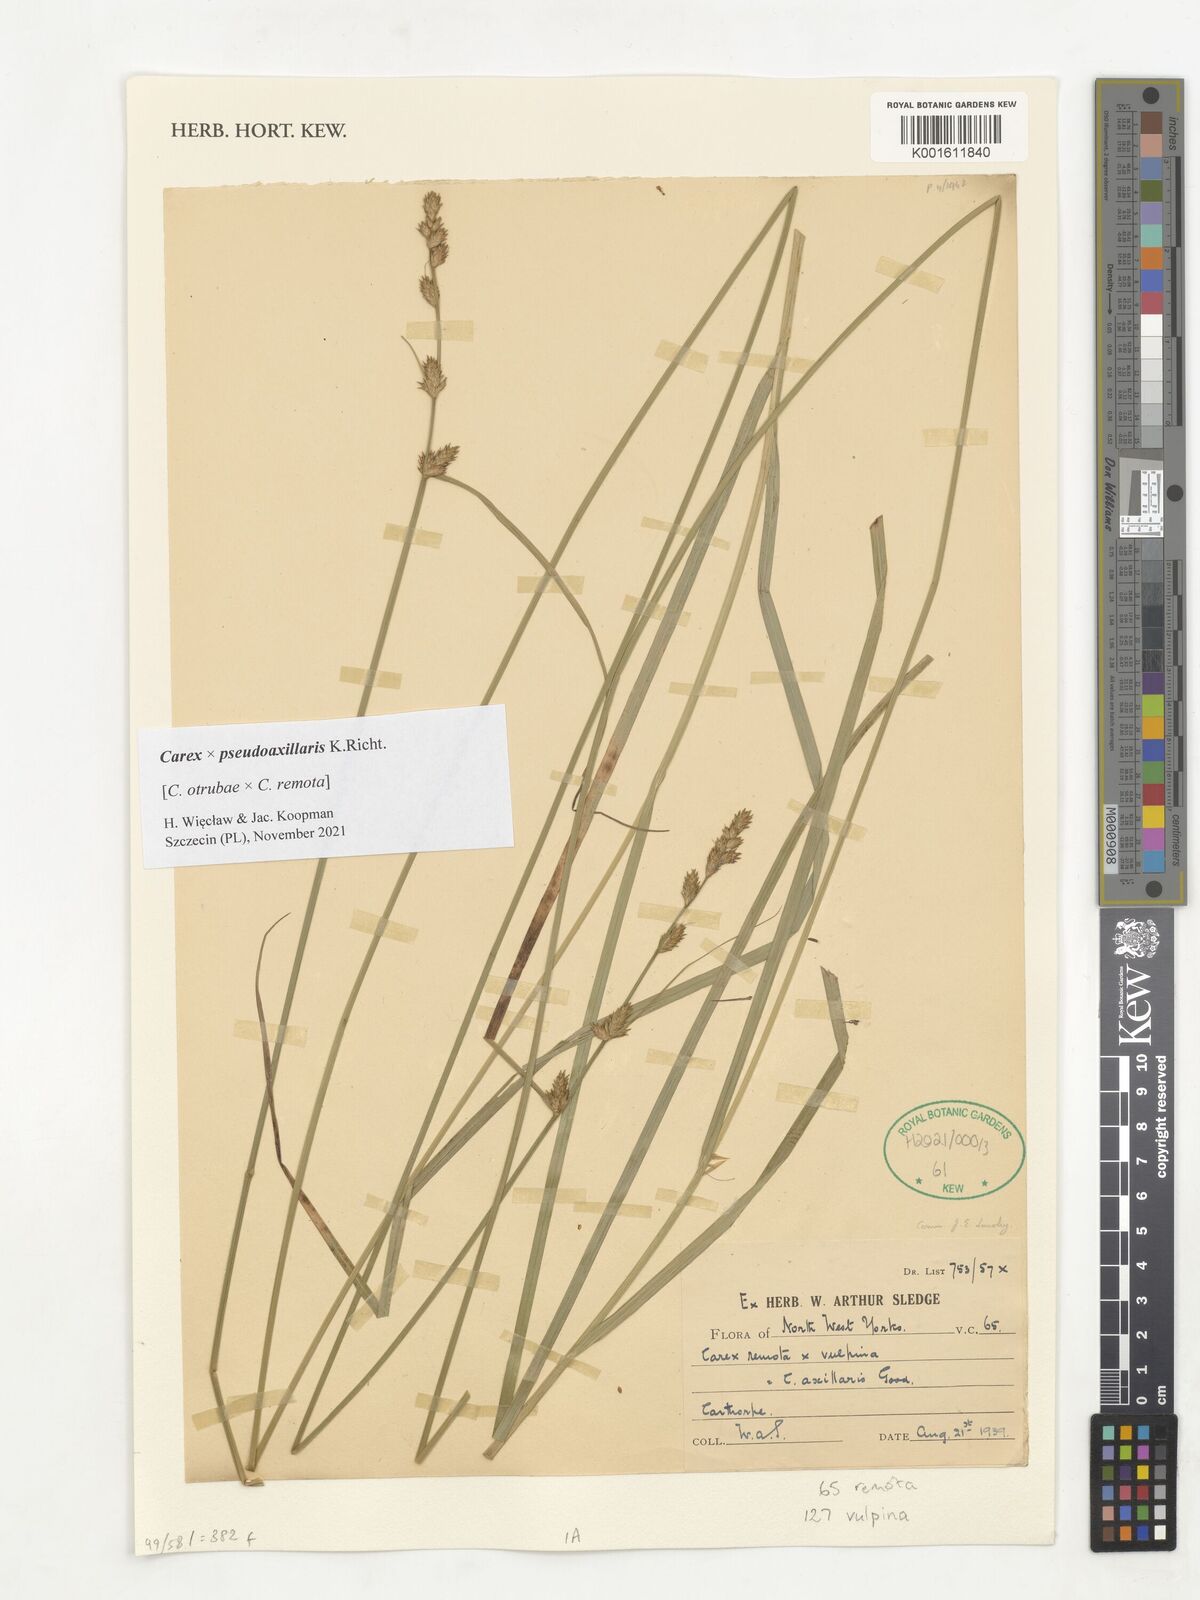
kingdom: Plantae
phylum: Tracheophyta
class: Liliopsida
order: Poales
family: Cyperaceae
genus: Carex
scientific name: Carex pseudoaxillaris
